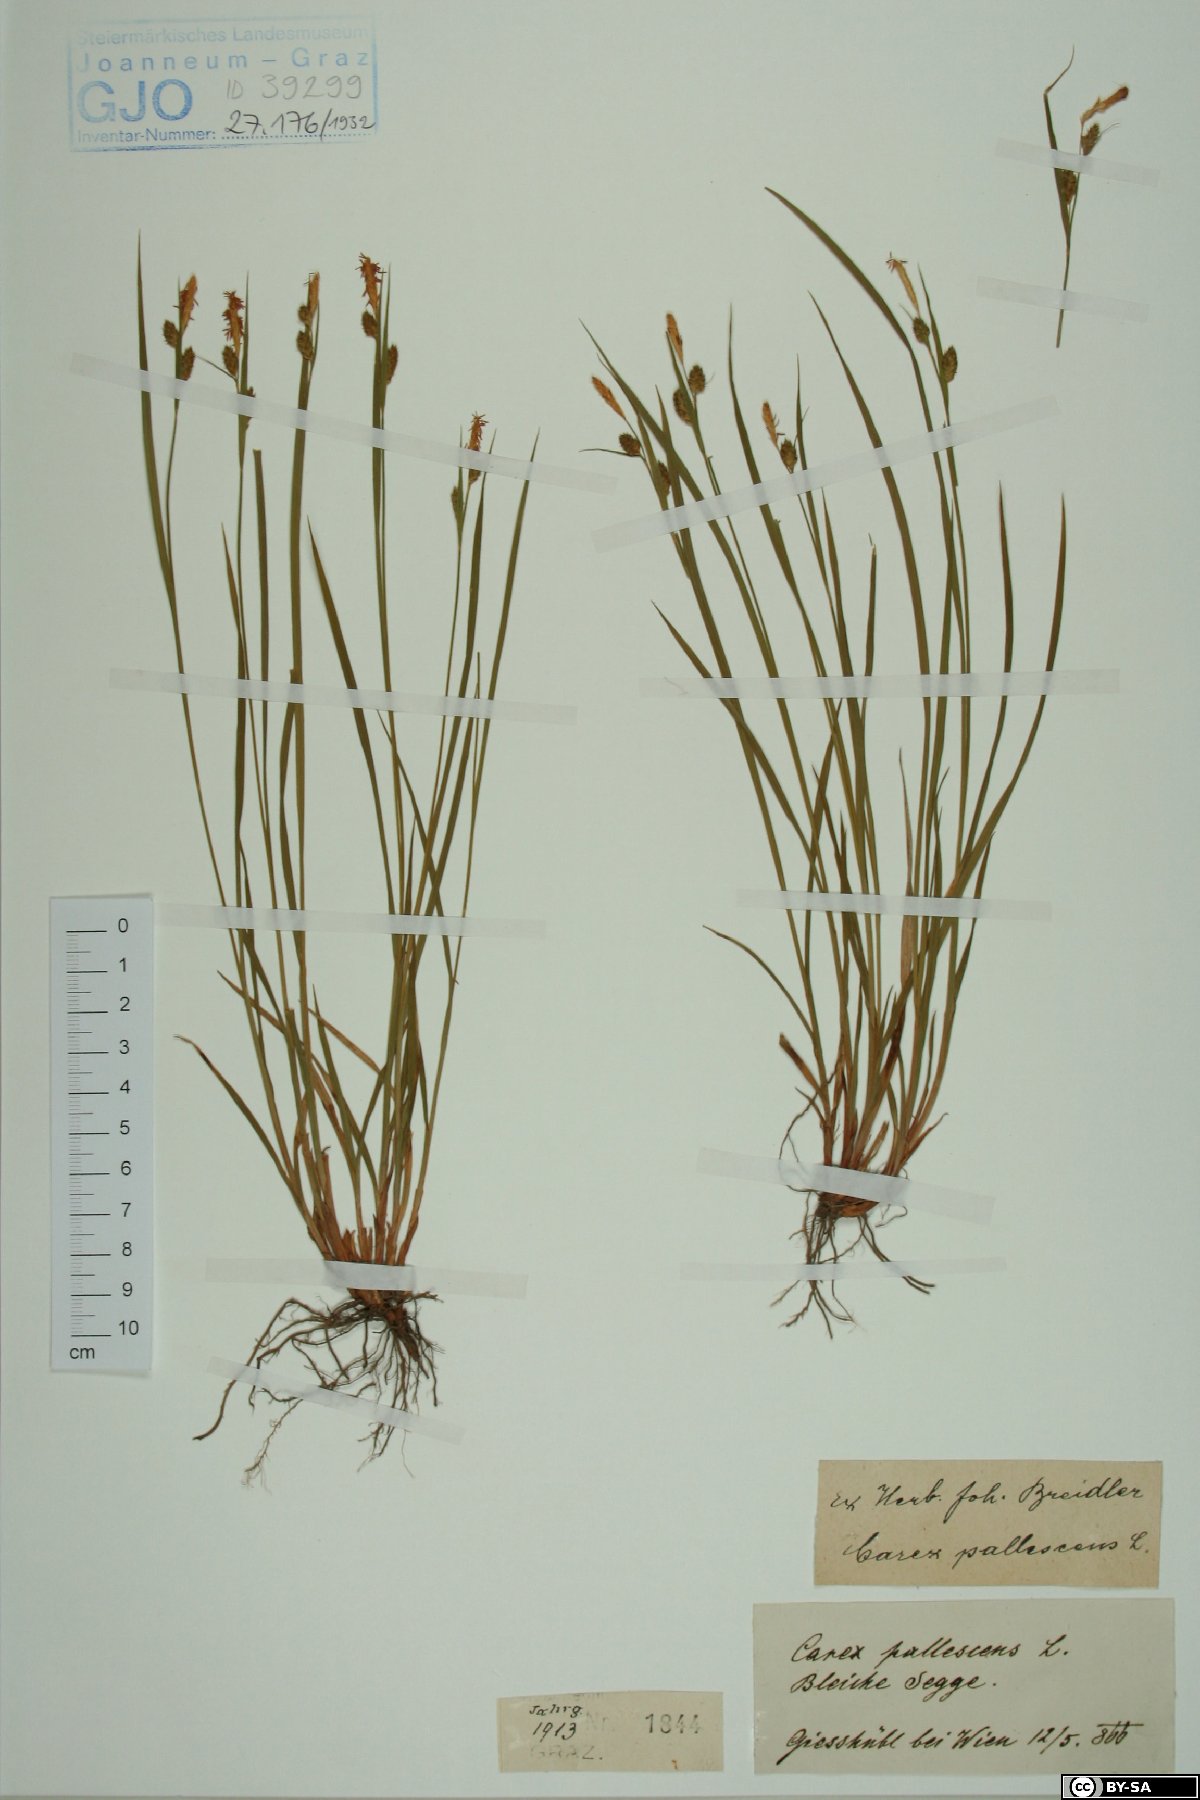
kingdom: Plantae
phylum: Tracheophyta
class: Liliopsida
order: Poales
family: Cyperaceae
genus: Carex
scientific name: Carex pallescens
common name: Pale sedge
